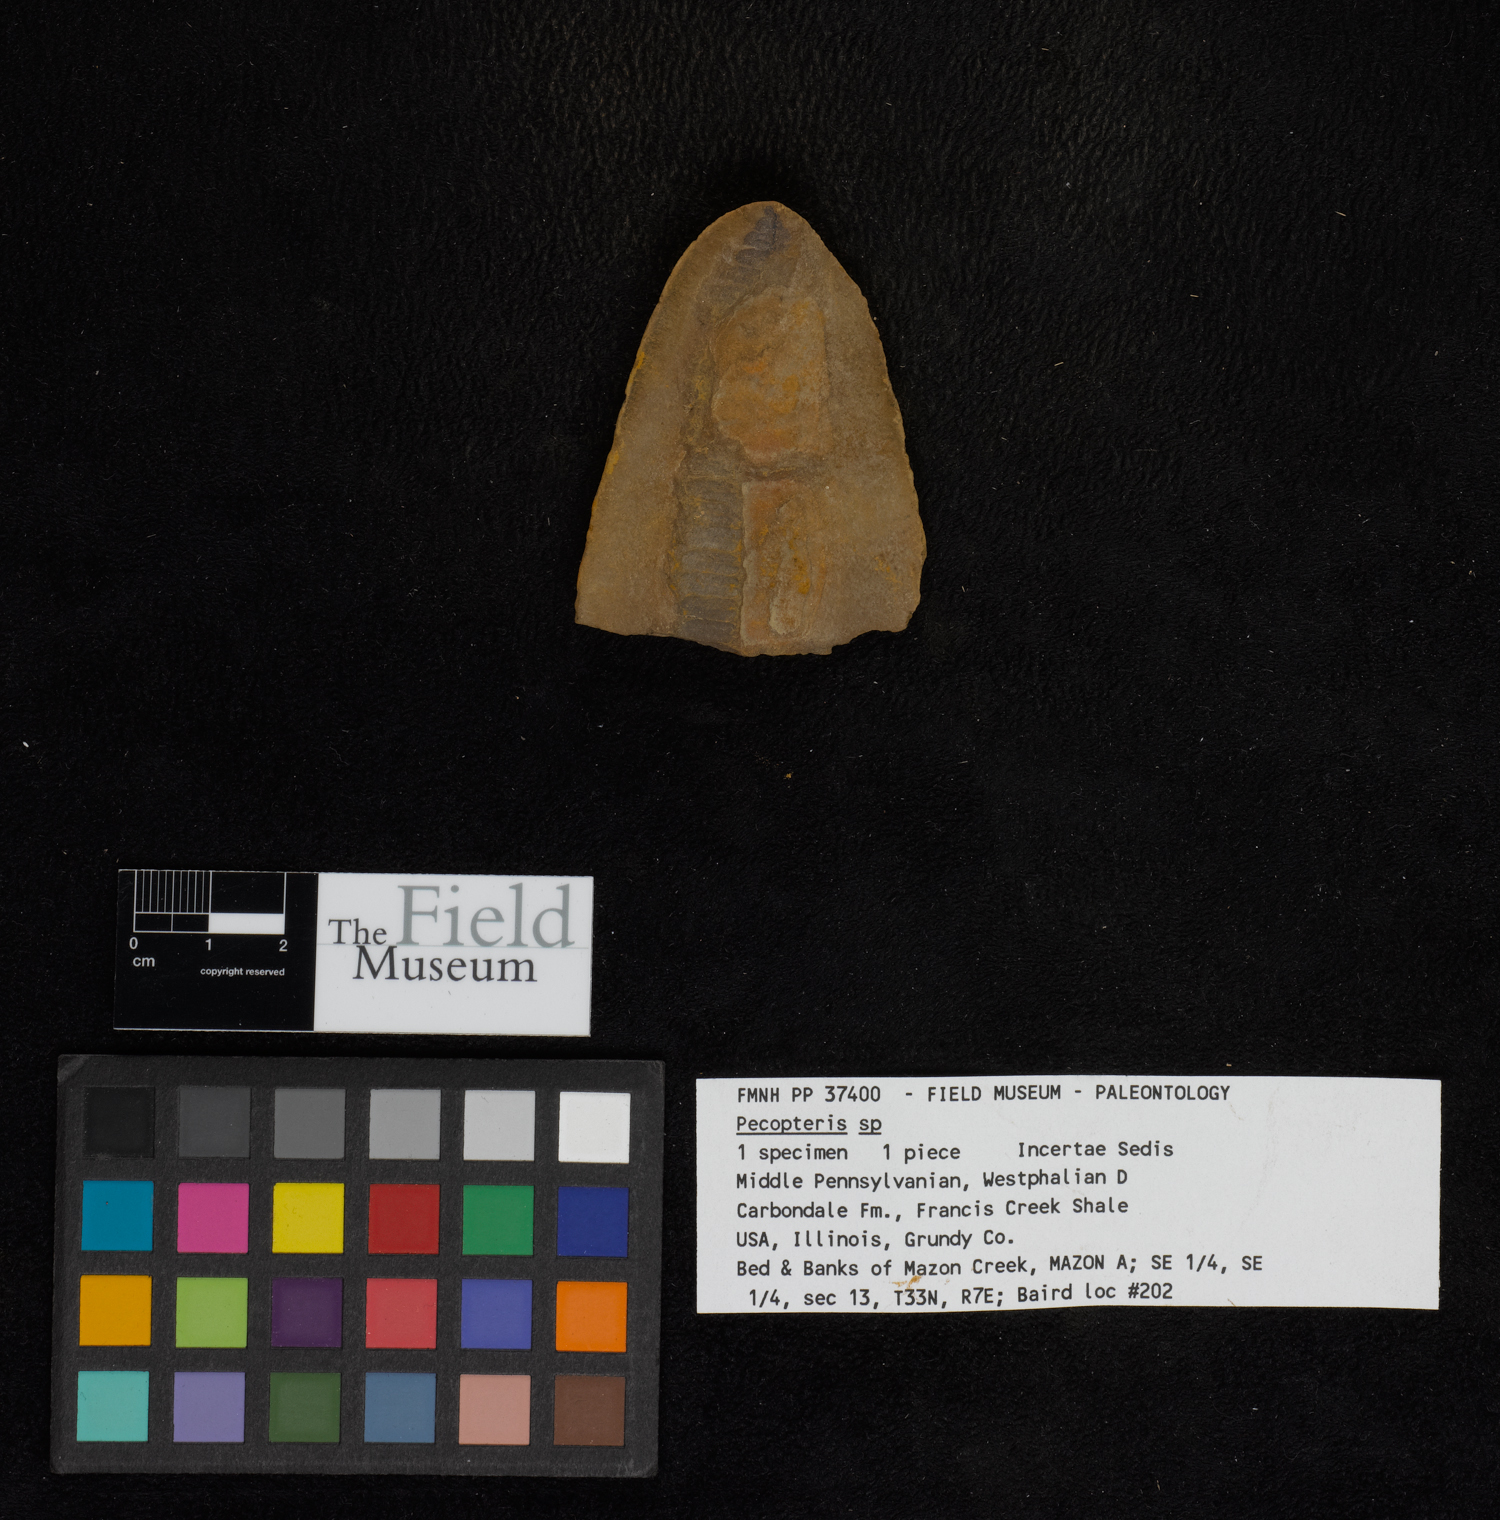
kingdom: Plantae
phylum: Tracheophyta
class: Polypodiopsida
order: Marattiales
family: Asterothecaceae
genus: Pecopteris
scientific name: Pecopteris
